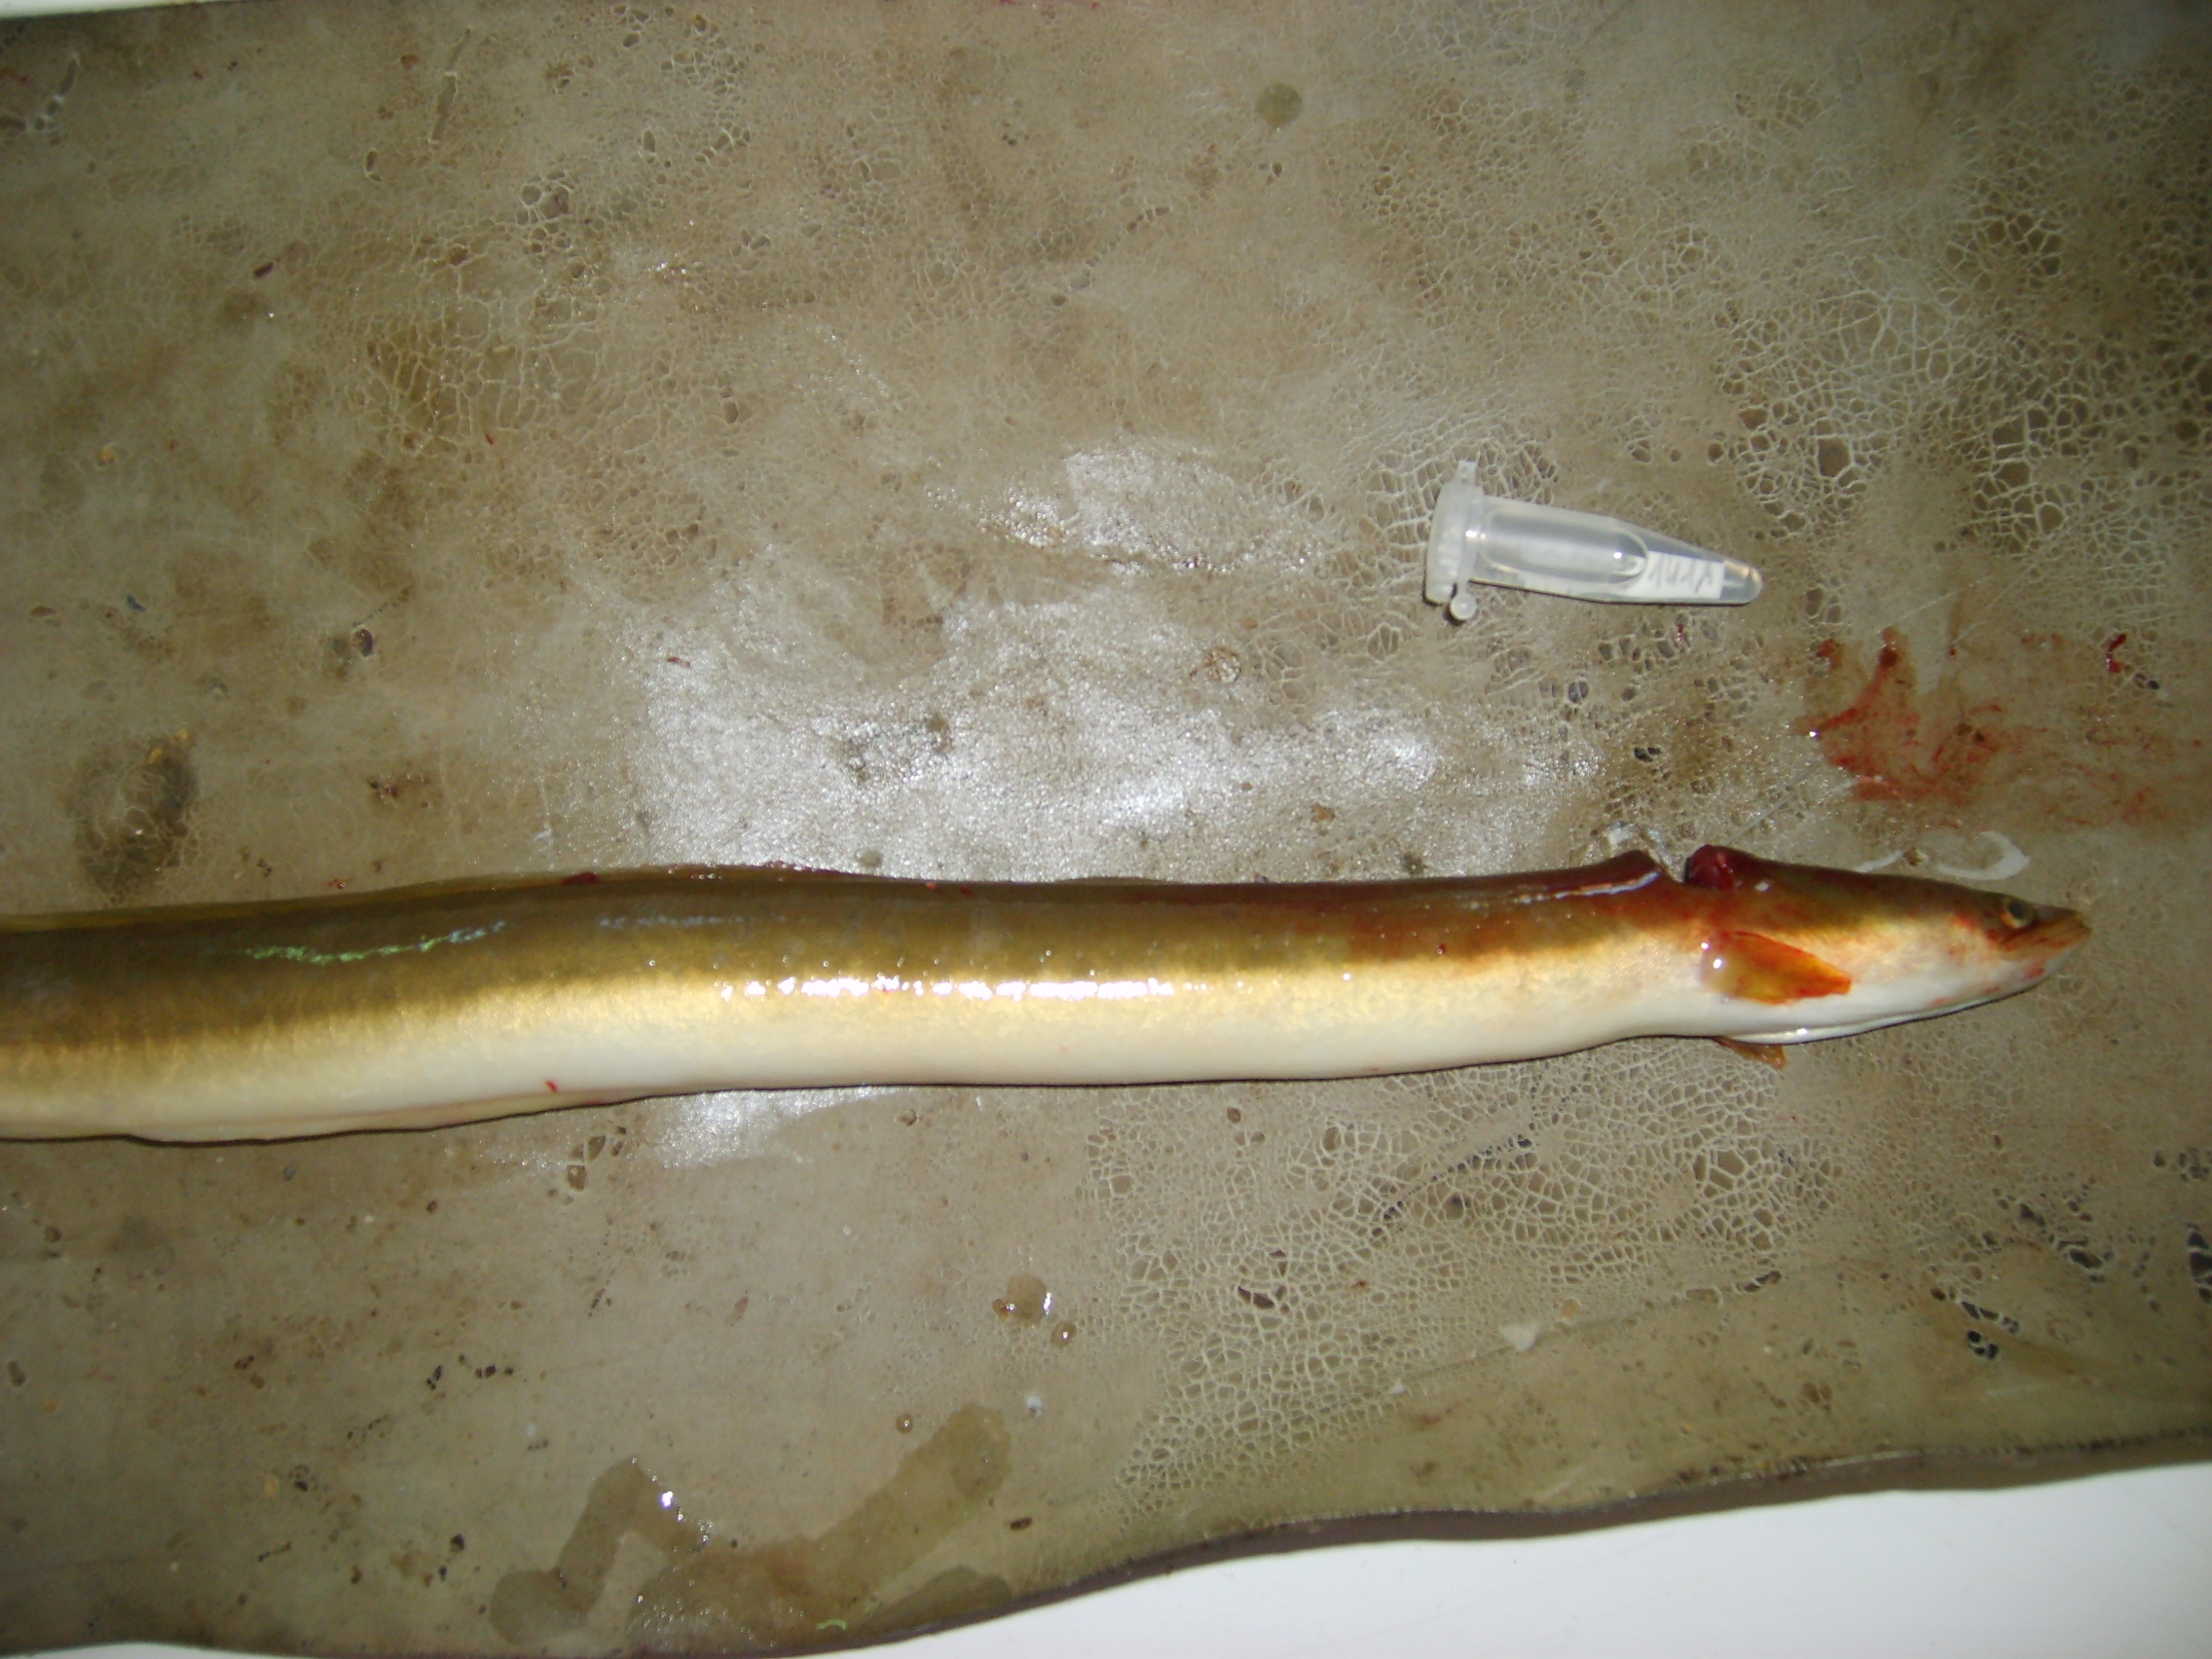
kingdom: Animalia
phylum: Chordata
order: Anguilliformes
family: Anguillidae
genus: Anguilla
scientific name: Anguilla mossambica
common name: African longfin eel
